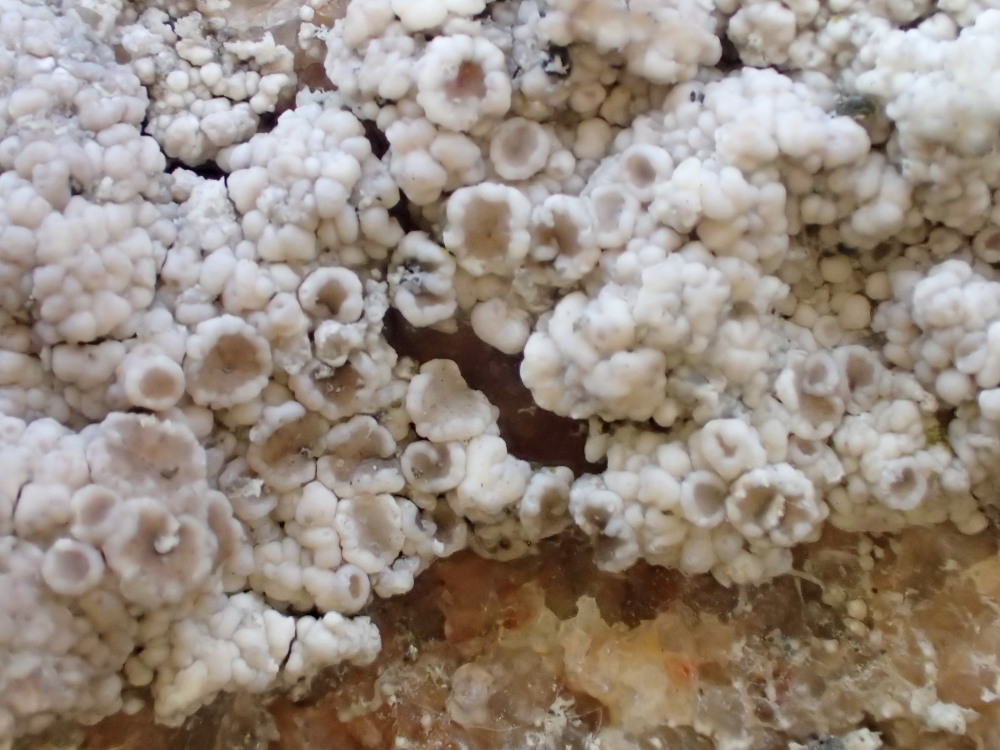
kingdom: Fungi
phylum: Ascomycota
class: Lecanoromycetes
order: Lecanorales
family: Lecanoraceae
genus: Polyozosia
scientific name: Polyozosia albescens
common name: cement-kantskivelav
